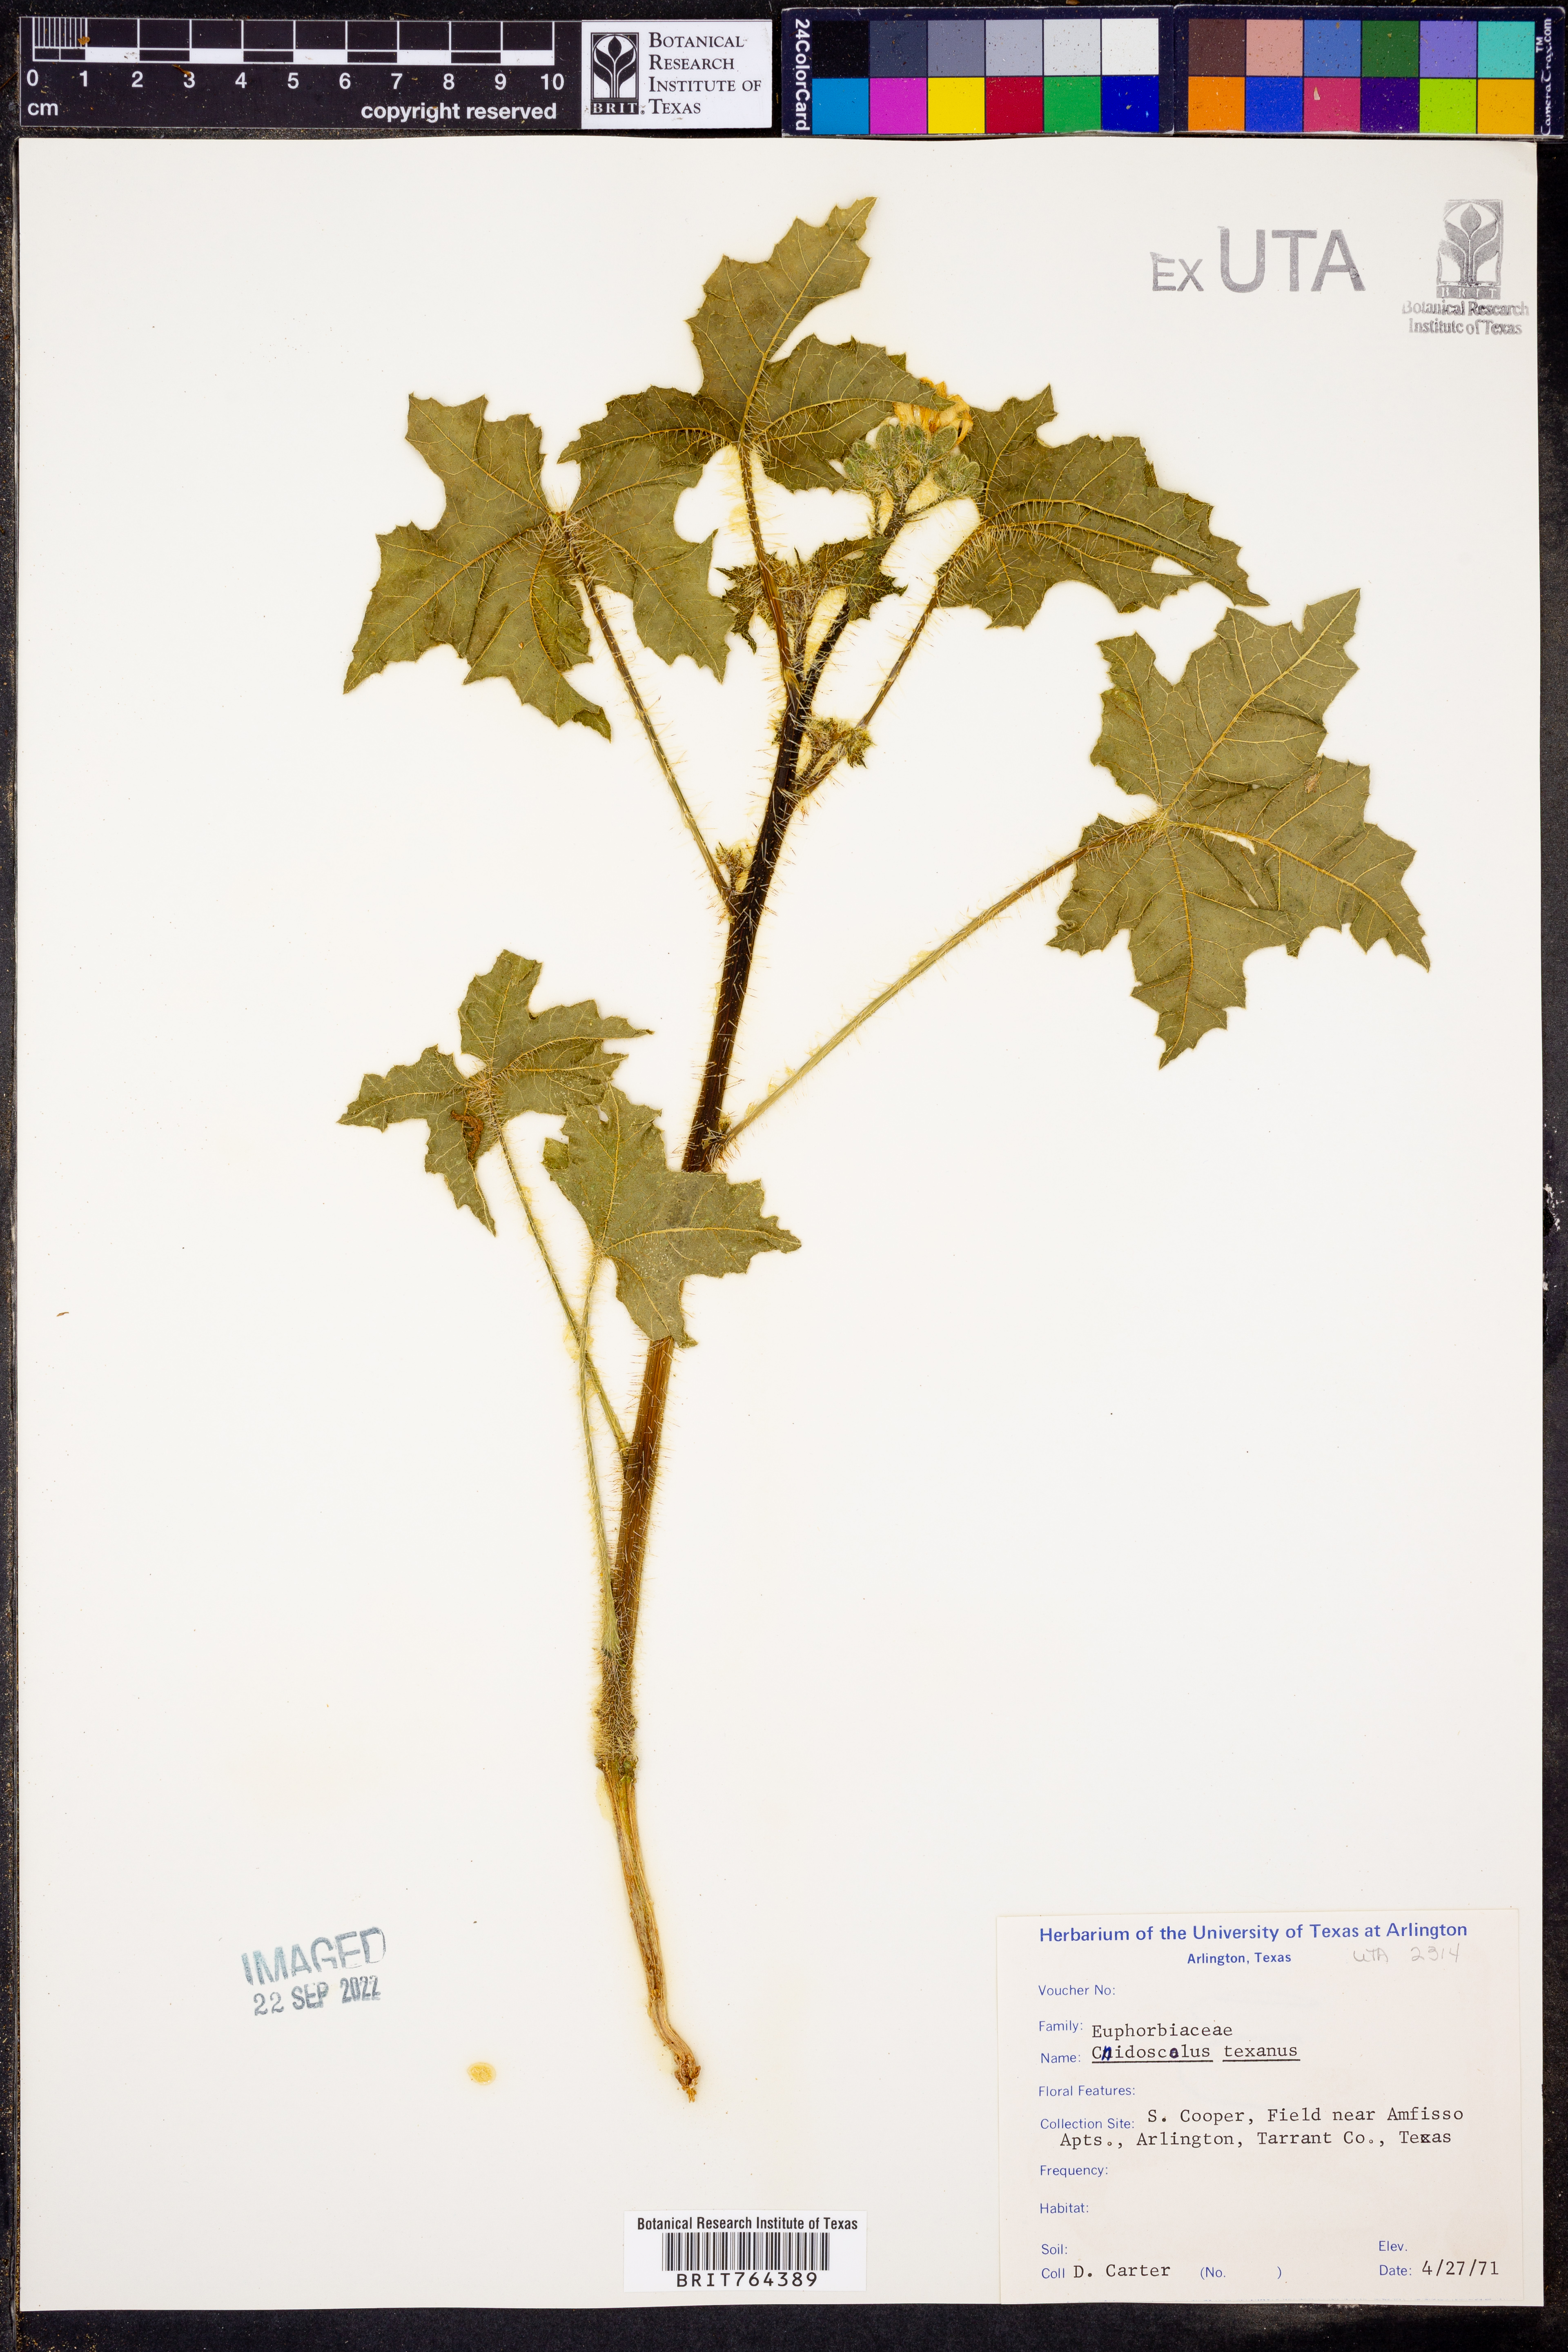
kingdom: Plantae
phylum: Tracheophyta
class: Magnoliopsida
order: Malpighiales
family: Euphorbiaceae
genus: Cnidoscolus
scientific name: Cnidoscolus texanus
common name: Texas bull-nettle
